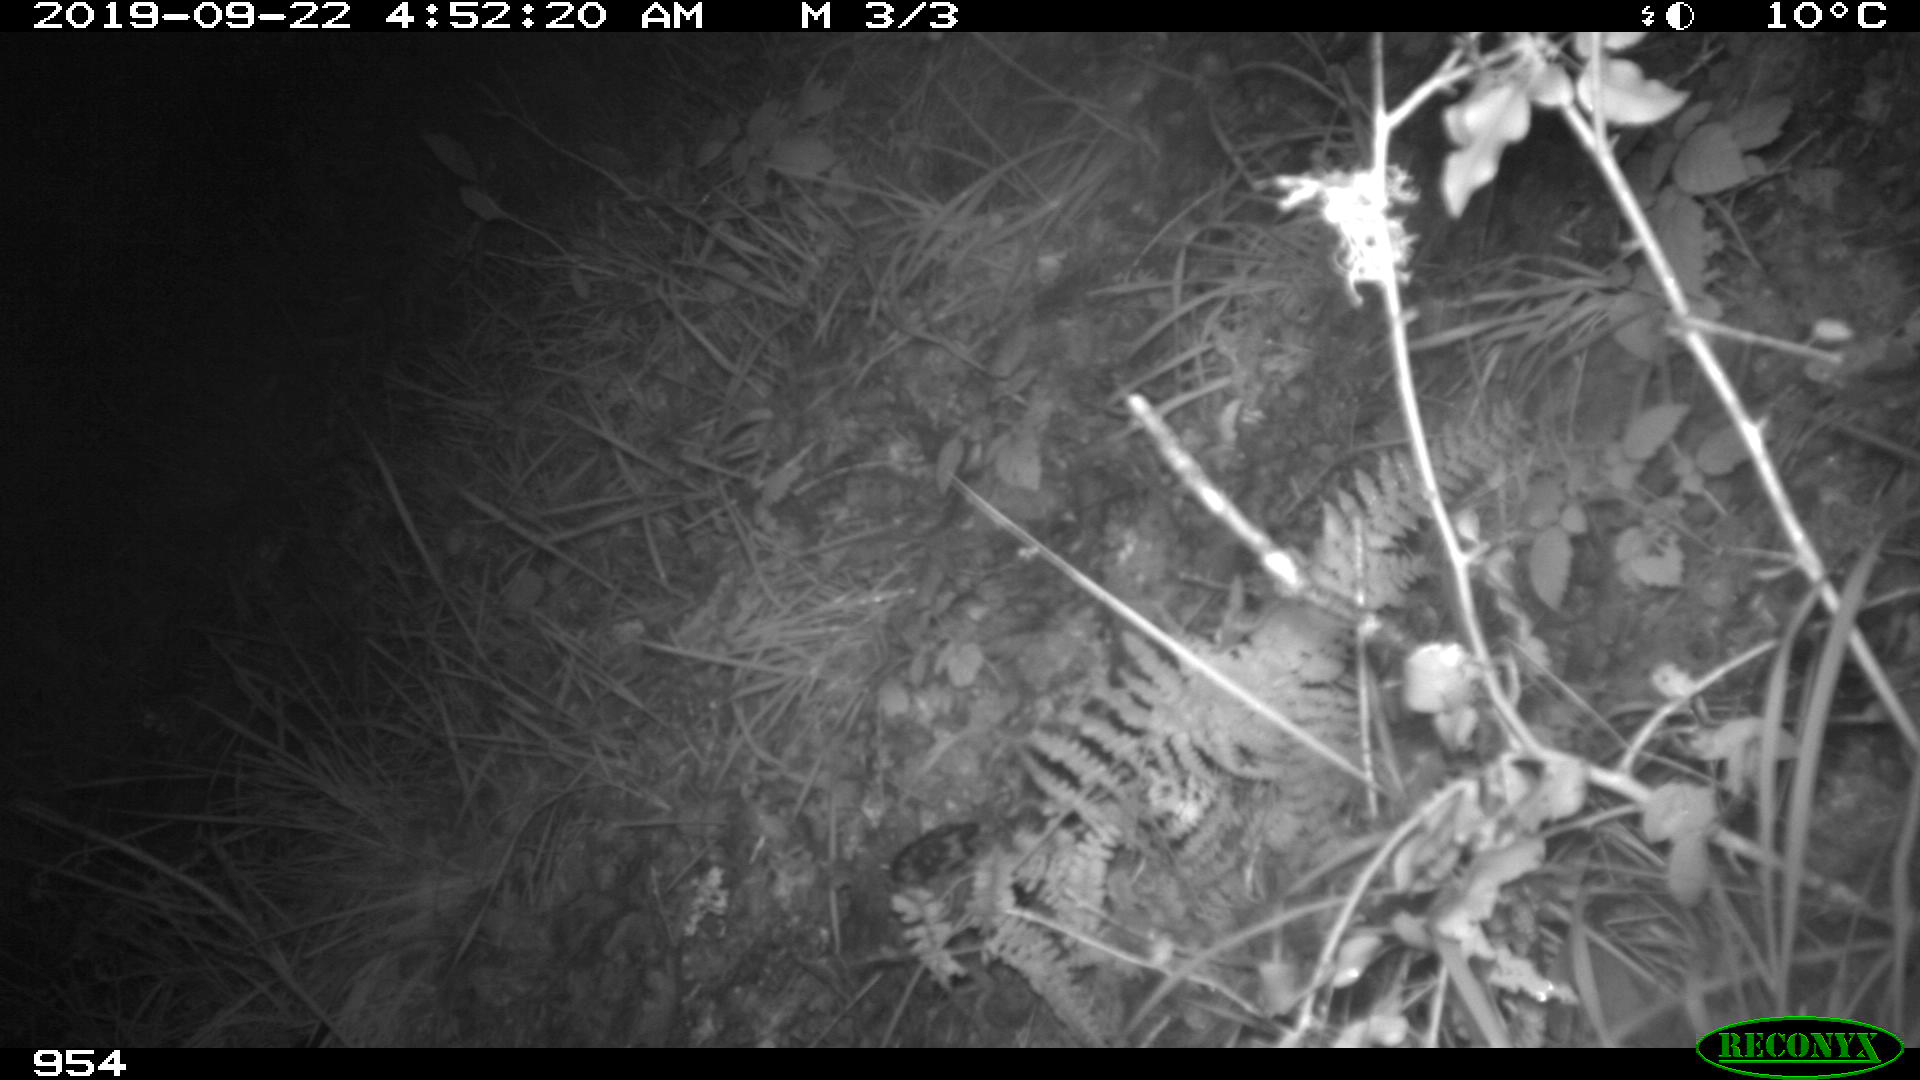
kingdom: Animalia
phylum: Chordata
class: Mammalia
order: Artiodactyla
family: Suidae
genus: Sus
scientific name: Sus scrofa
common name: Wild boar
